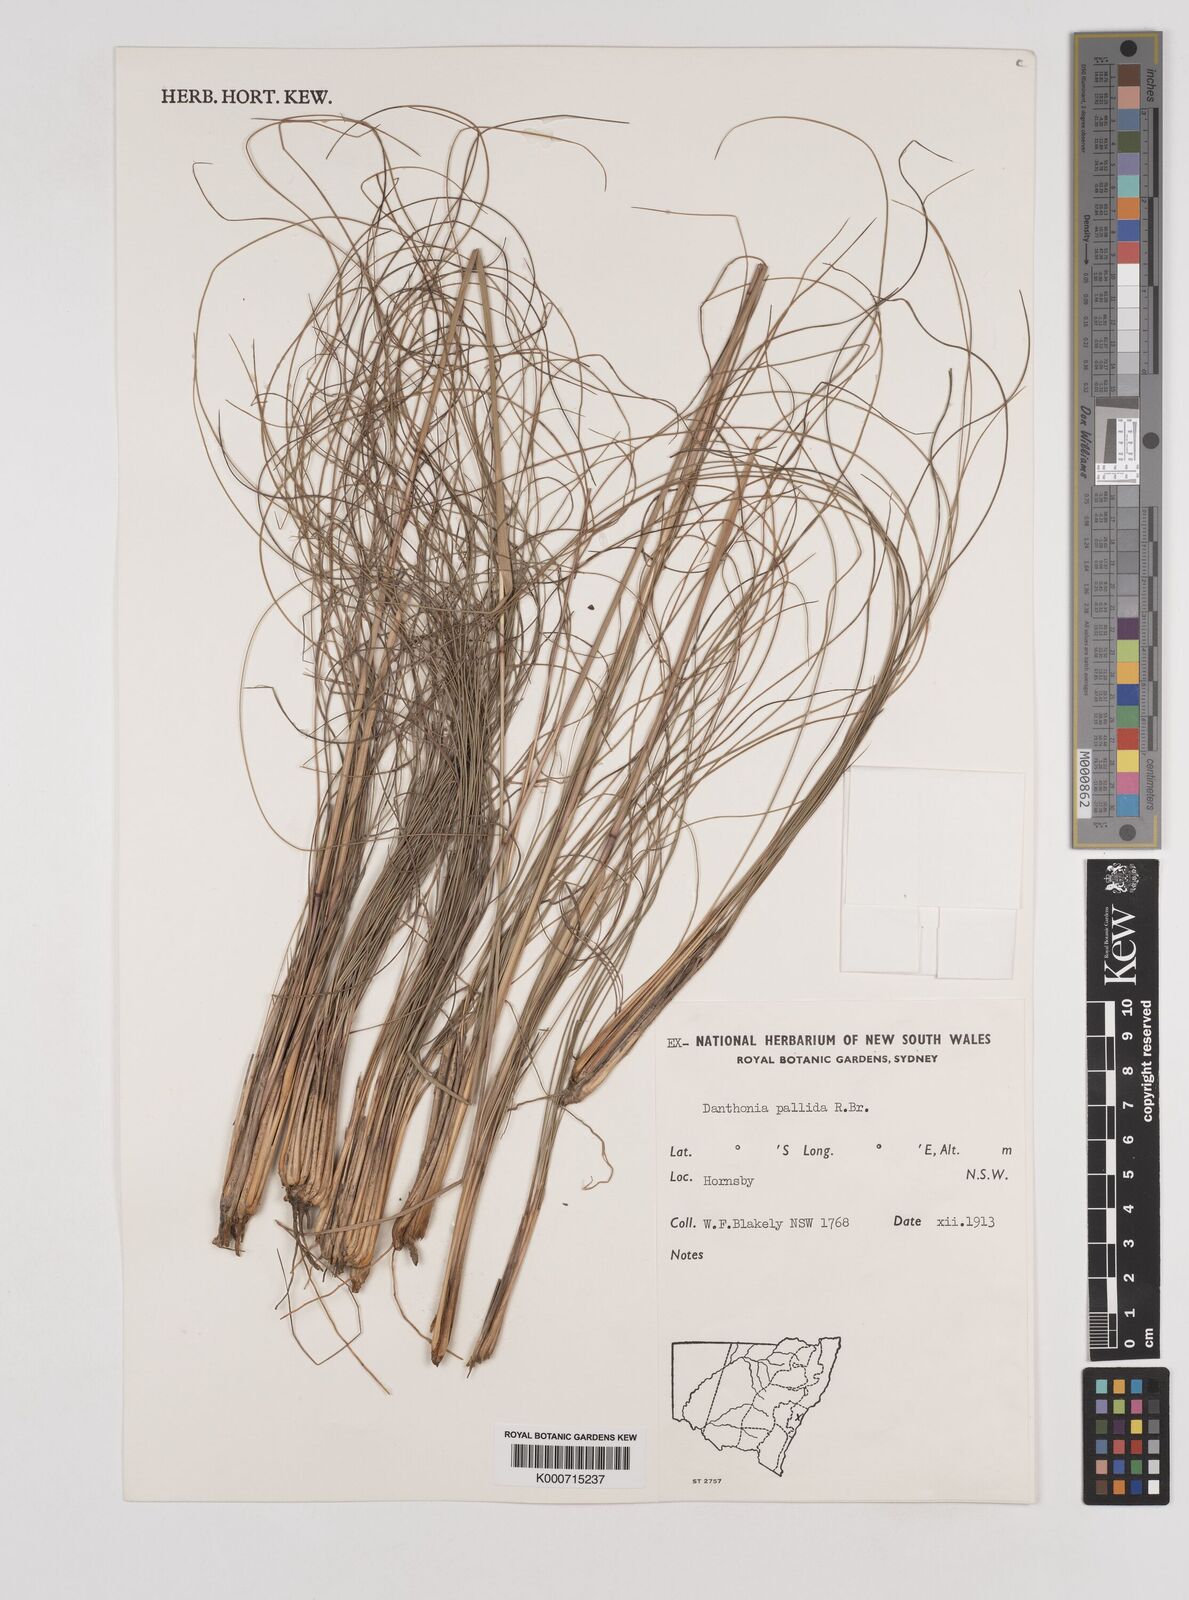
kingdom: Plantae
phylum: Tracheophyta
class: Liliopsida
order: Poales
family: Poaceae
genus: Rytidosperma
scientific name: Rytidosperma
